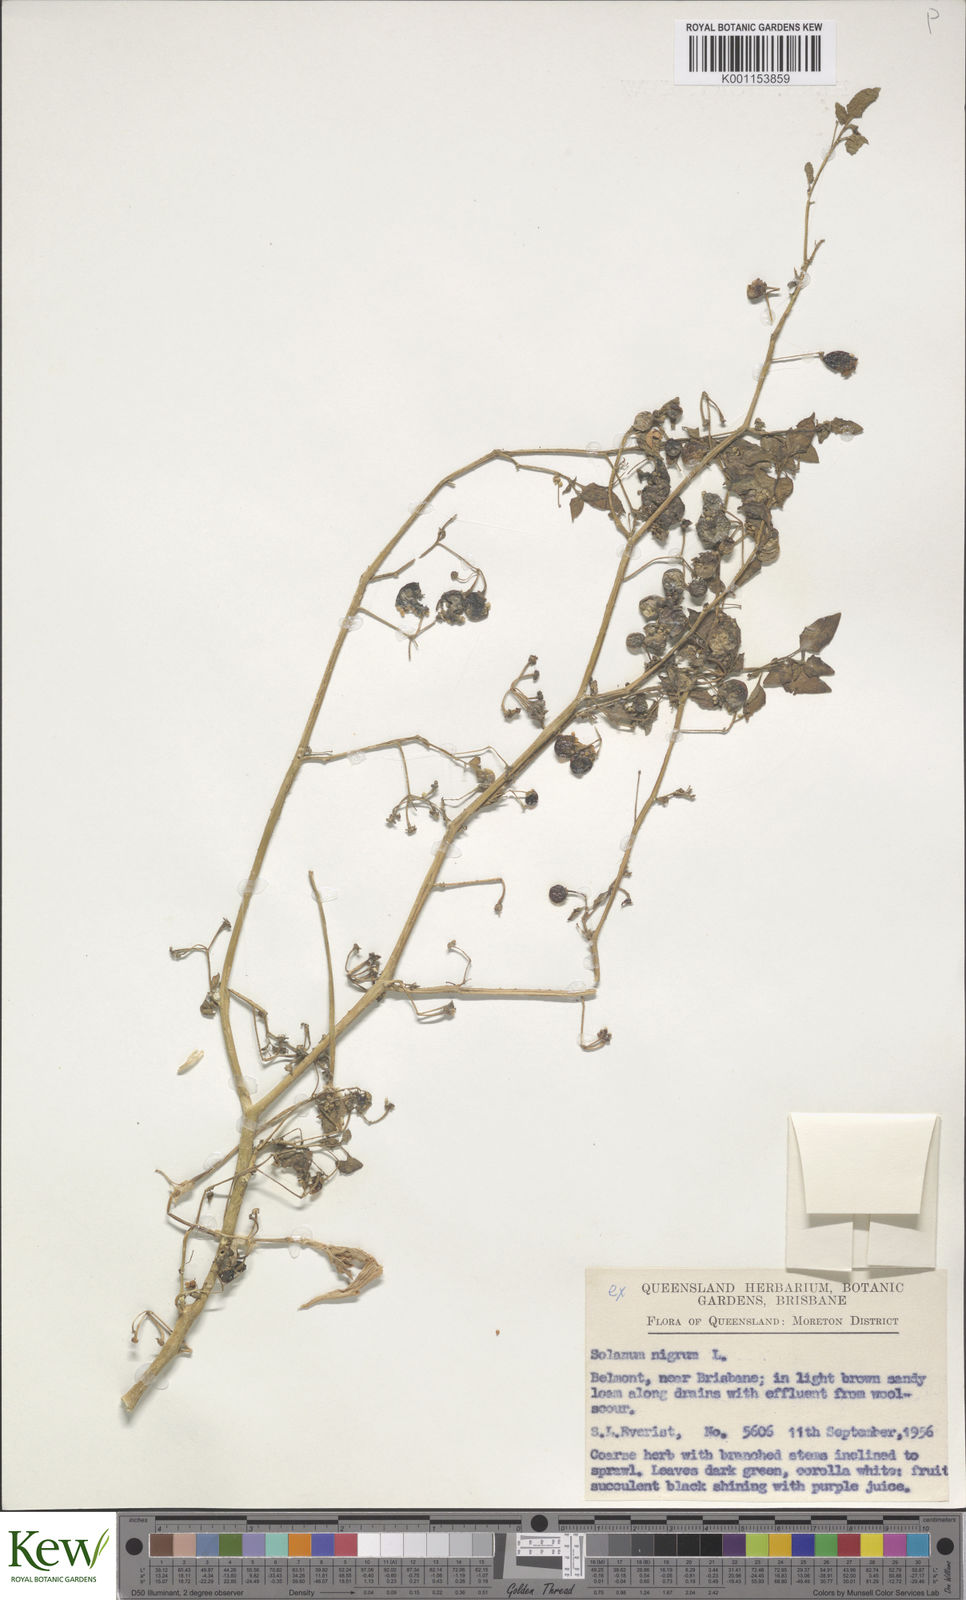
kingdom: Plantae
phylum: Tracheophyta
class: Magnoliopsida
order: Solanales
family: Solanaceae
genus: Solanum
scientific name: Solanum americanum
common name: American black nightshade
